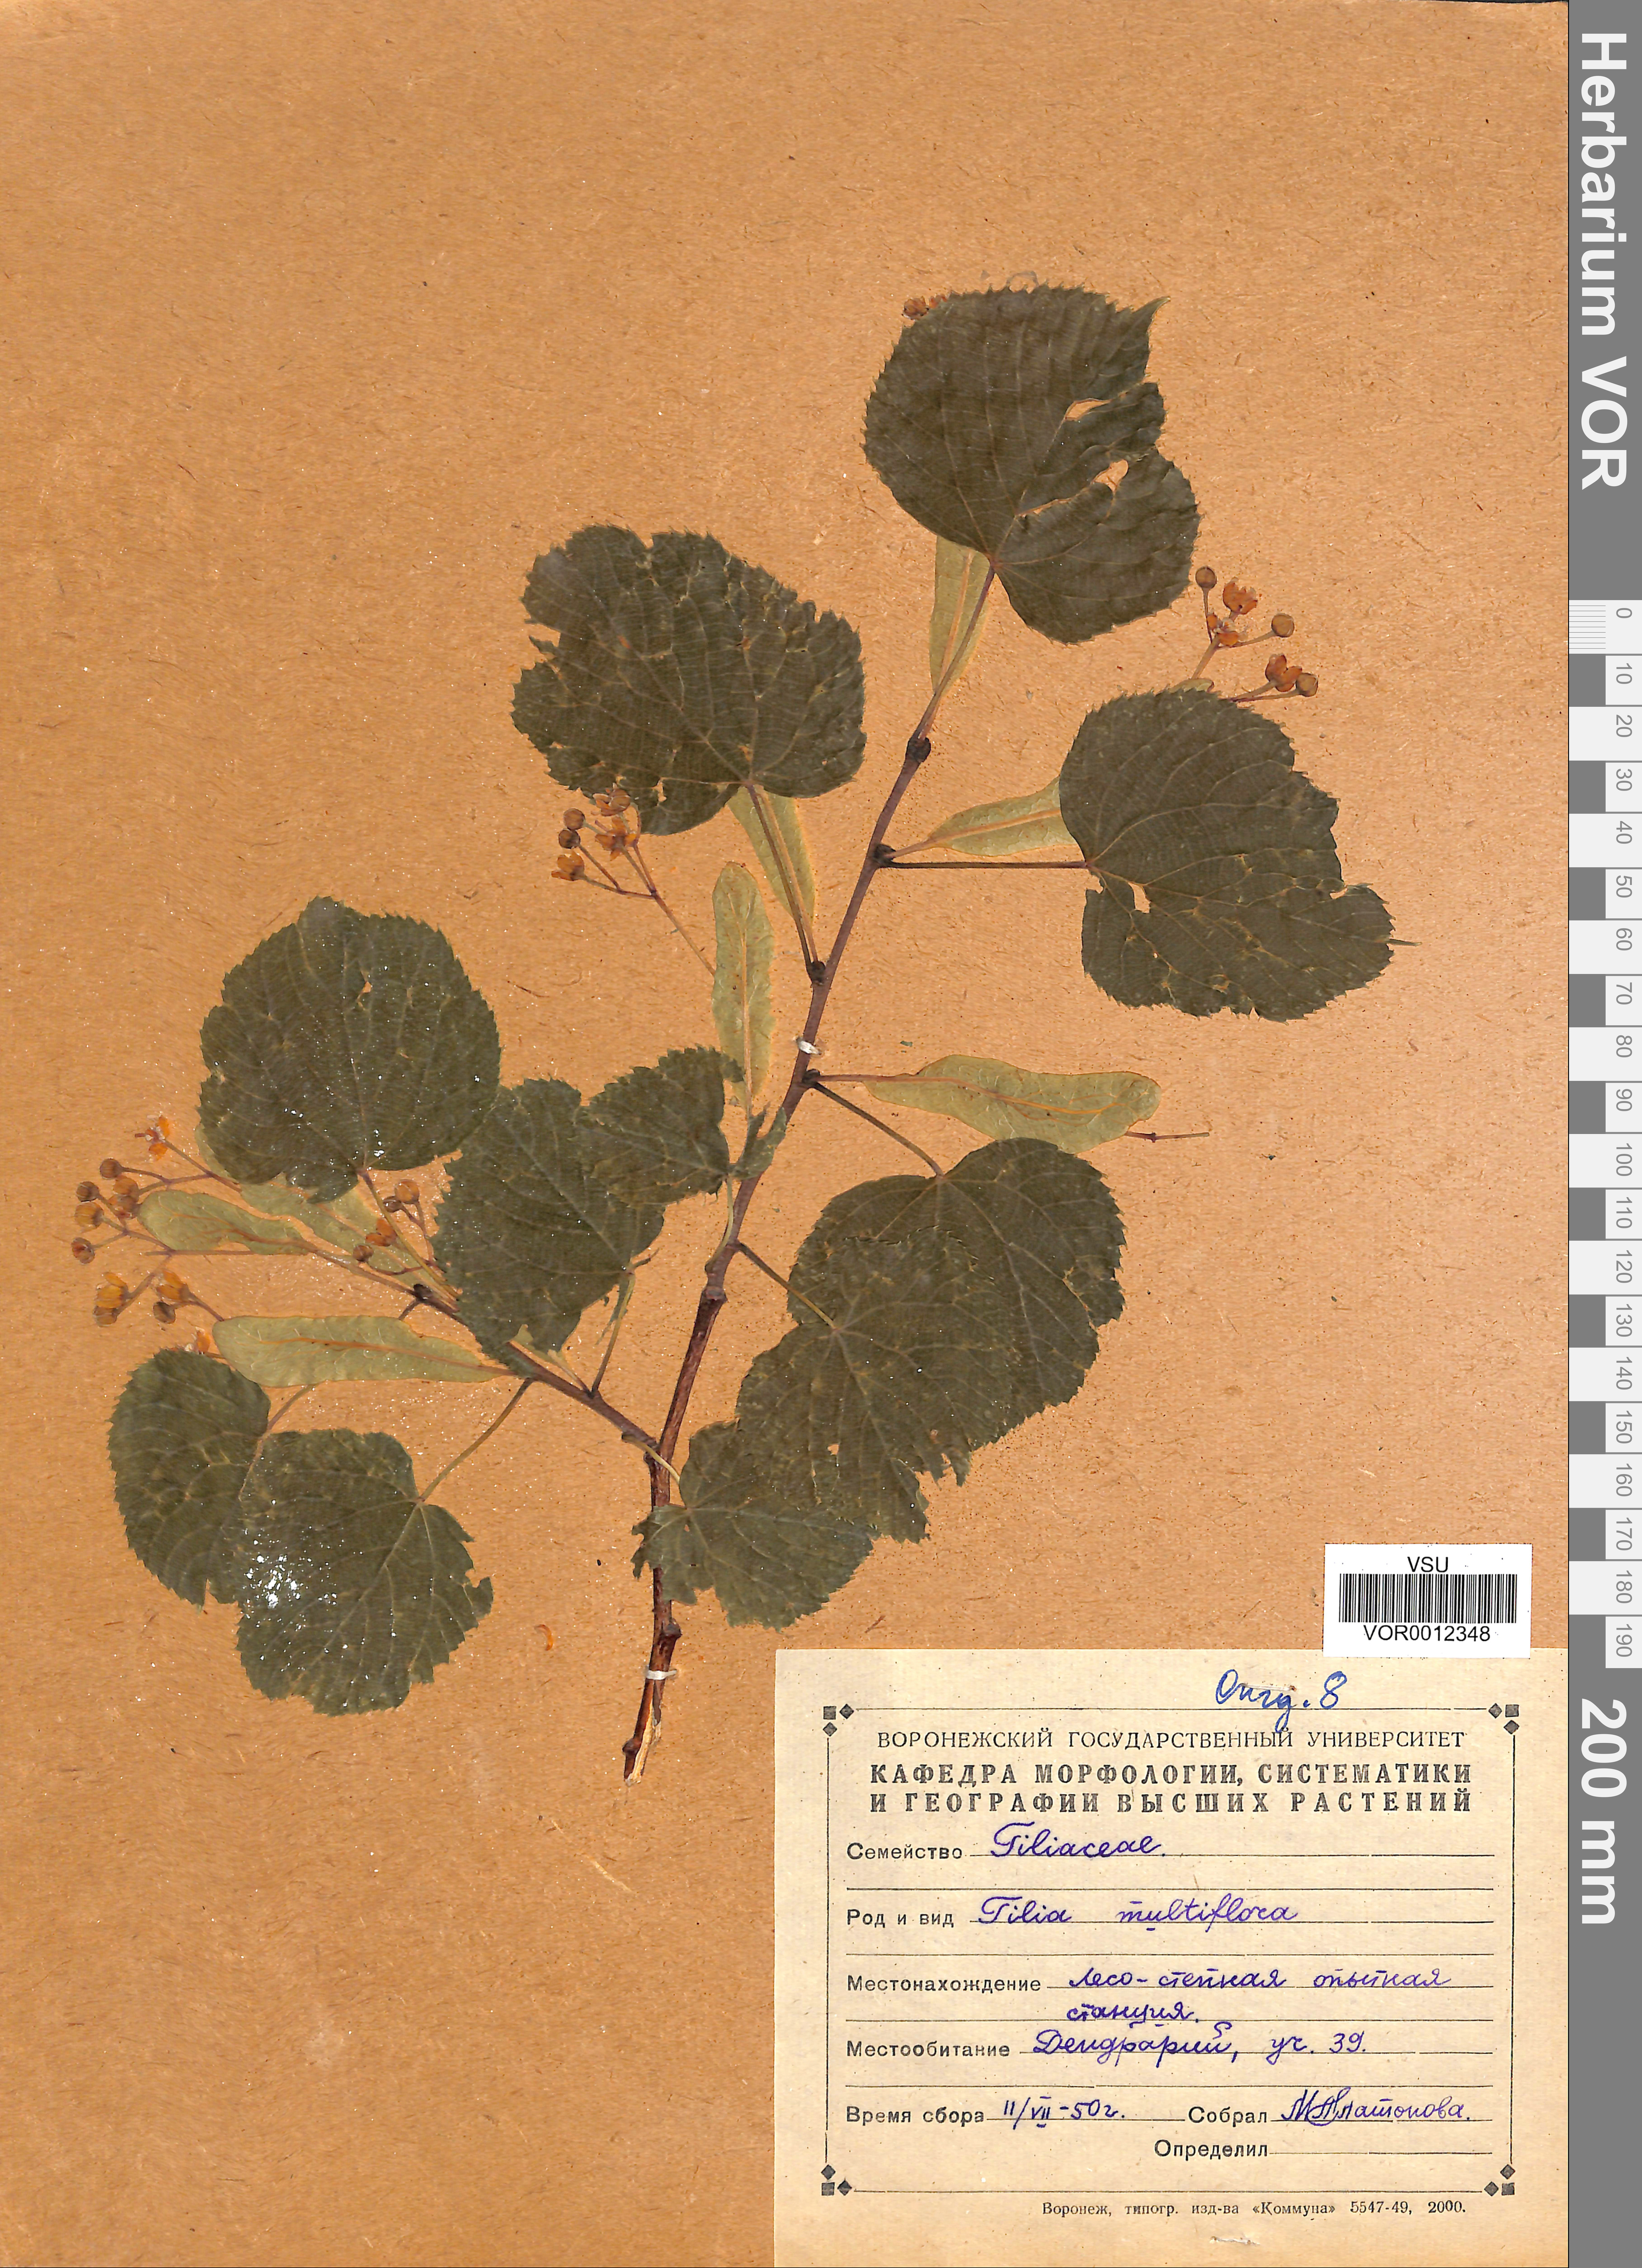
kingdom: Plantae
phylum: Tracheophyta
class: Magnoliopsida
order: Malvales
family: Malvaceae
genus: Tilia
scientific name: Tilia dasystyla
